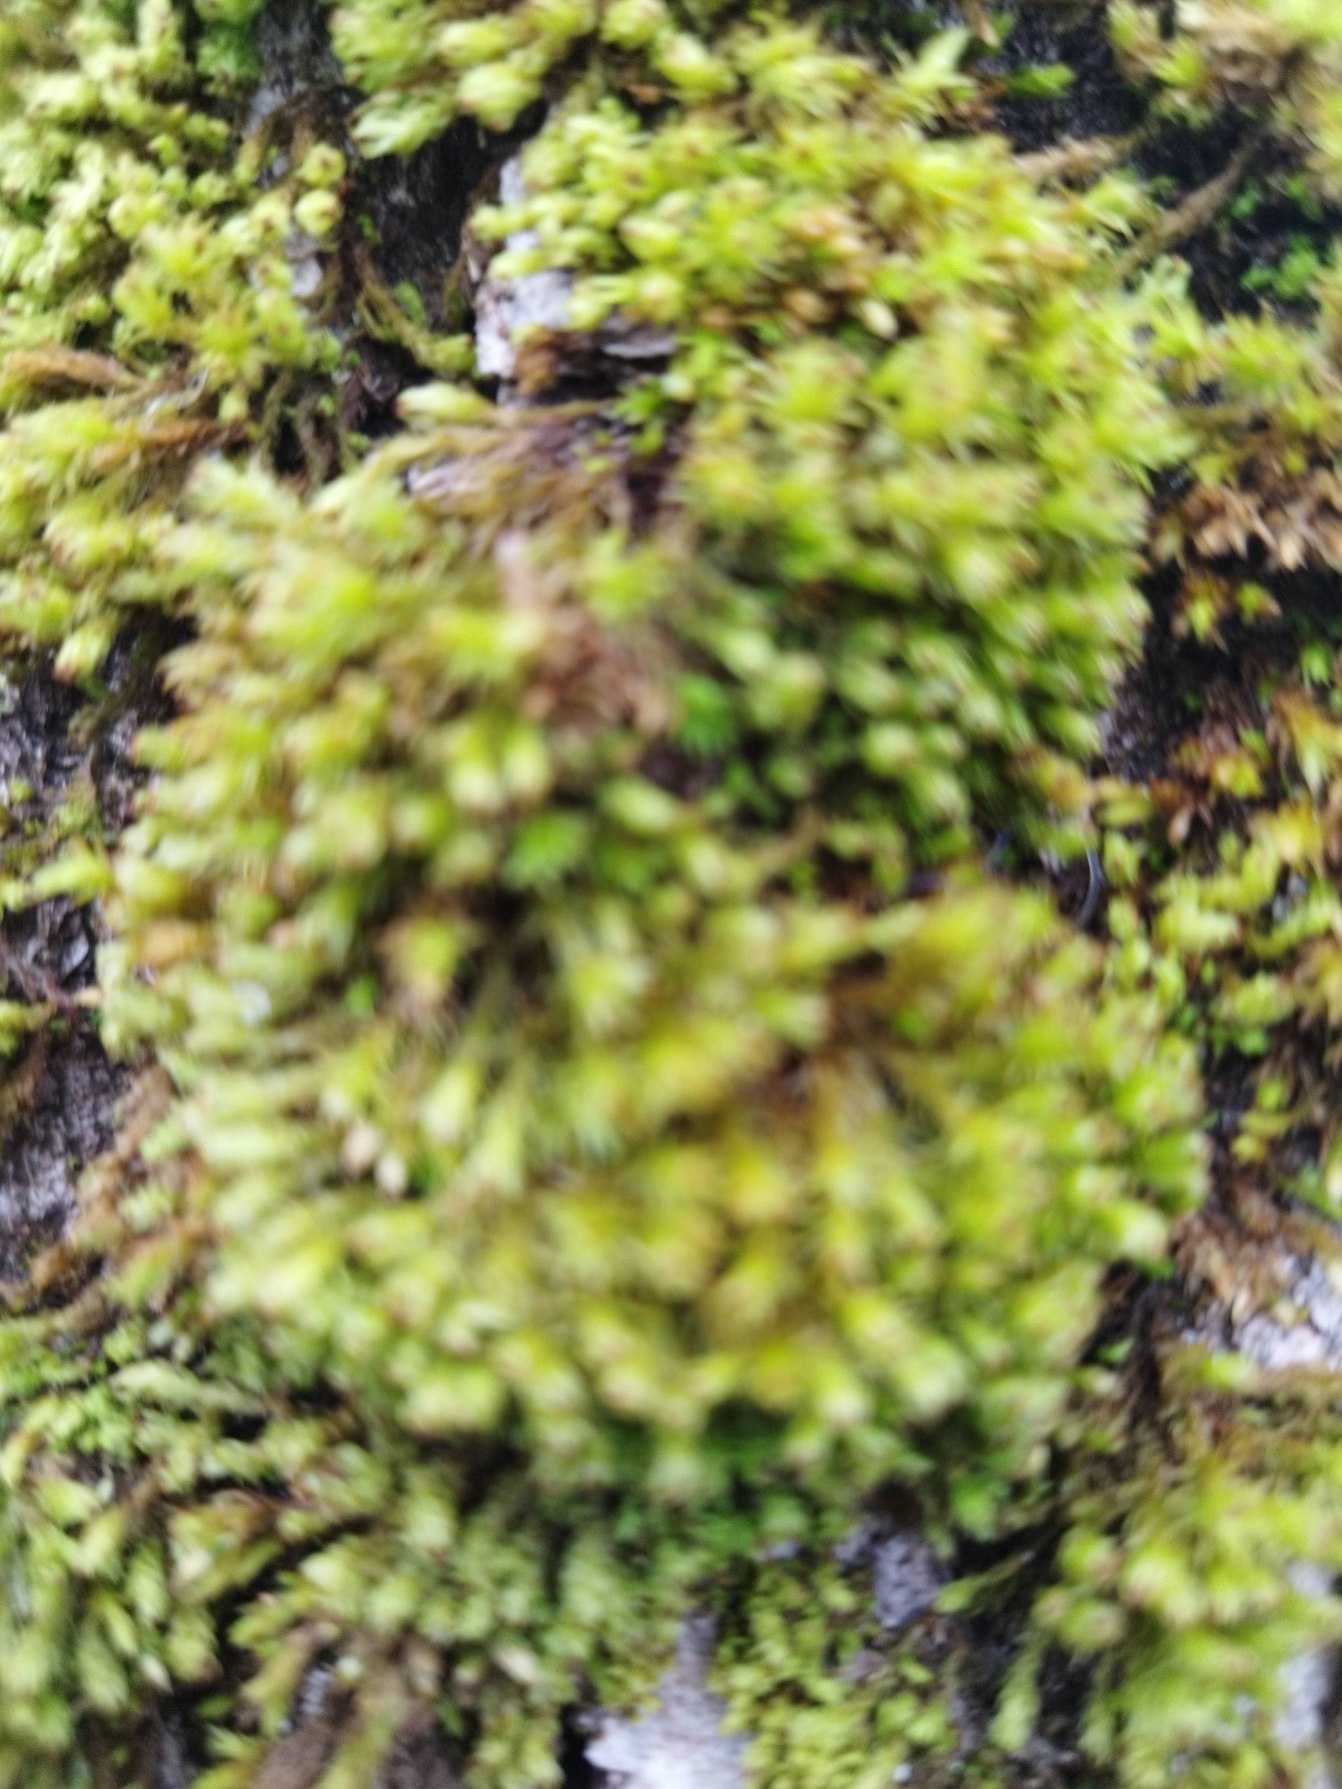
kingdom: Plantae
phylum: Bryophyta
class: Bryopsida
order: Orthotrichales
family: Orthotrichaceae
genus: Plenogemma
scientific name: Plenogemma phyllantha
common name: Stor låddenhætte
